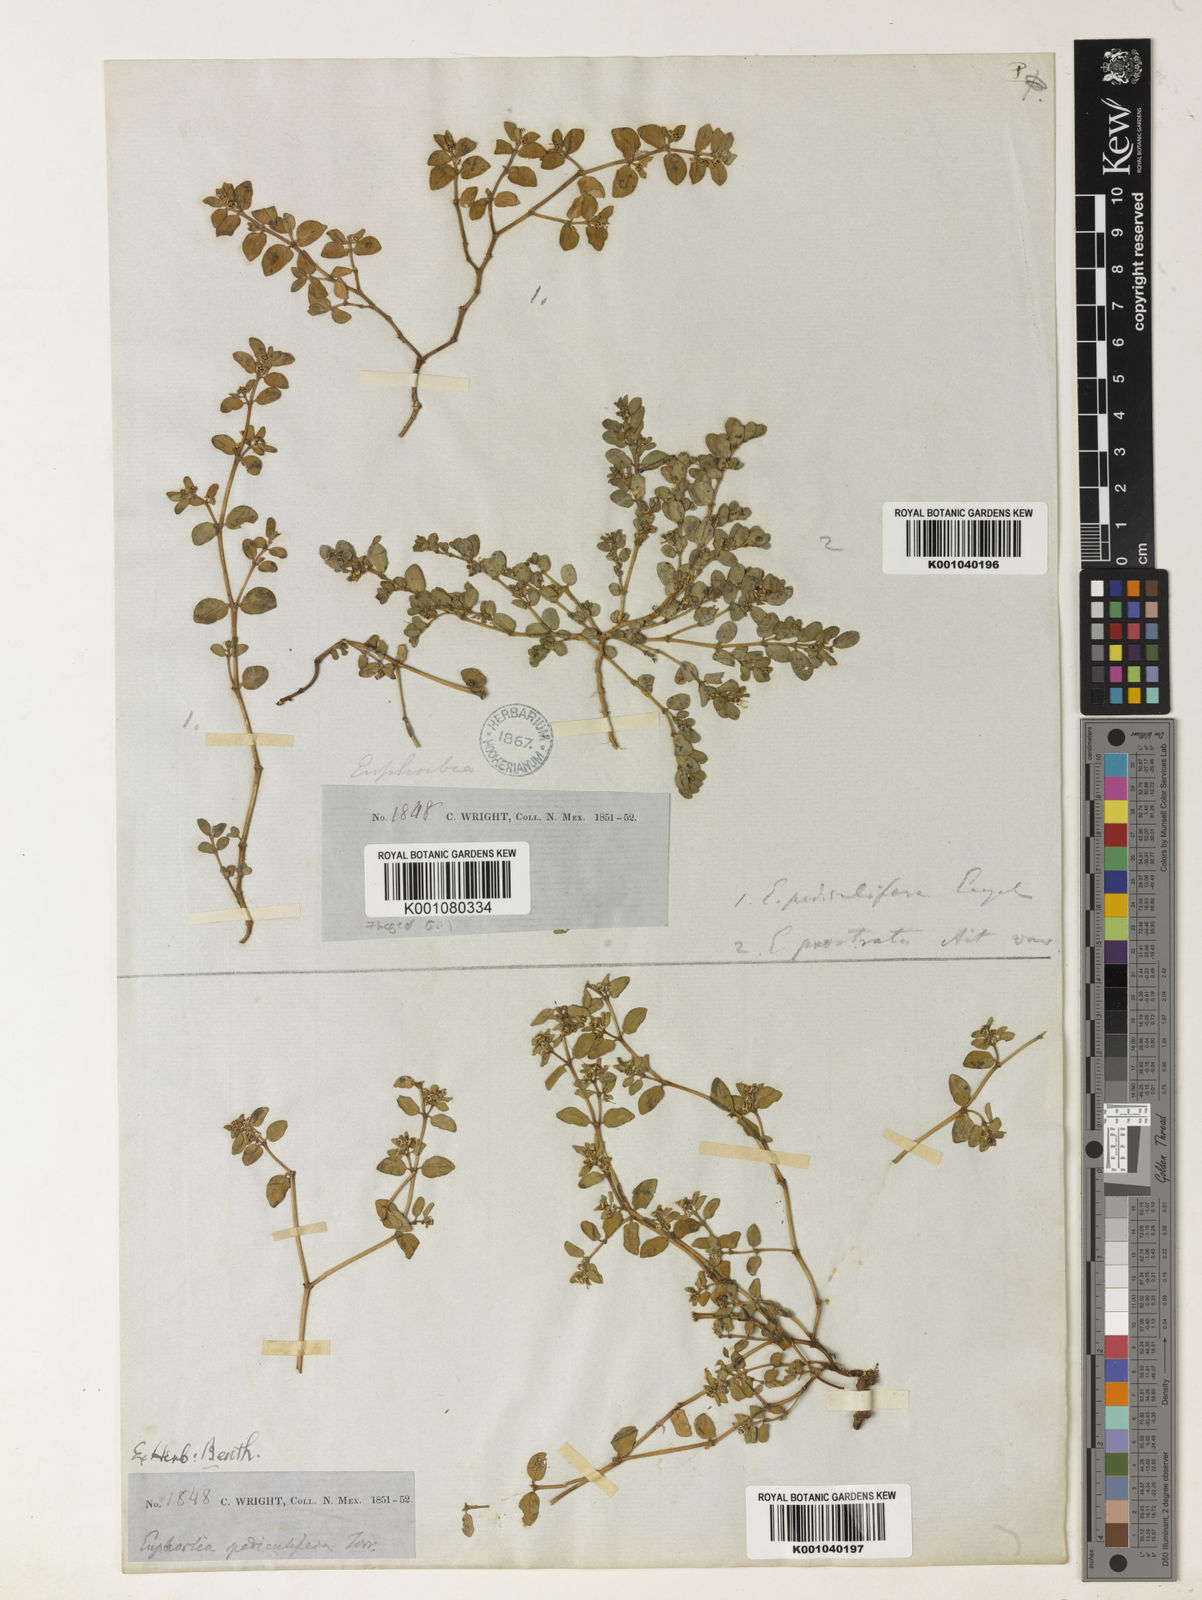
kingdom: Plantae
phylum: Tracheophyta
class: Magnoliopsida
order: Malpighiales
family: Euphorbiaceae
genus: Euphorbia
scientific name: Euphorbia
